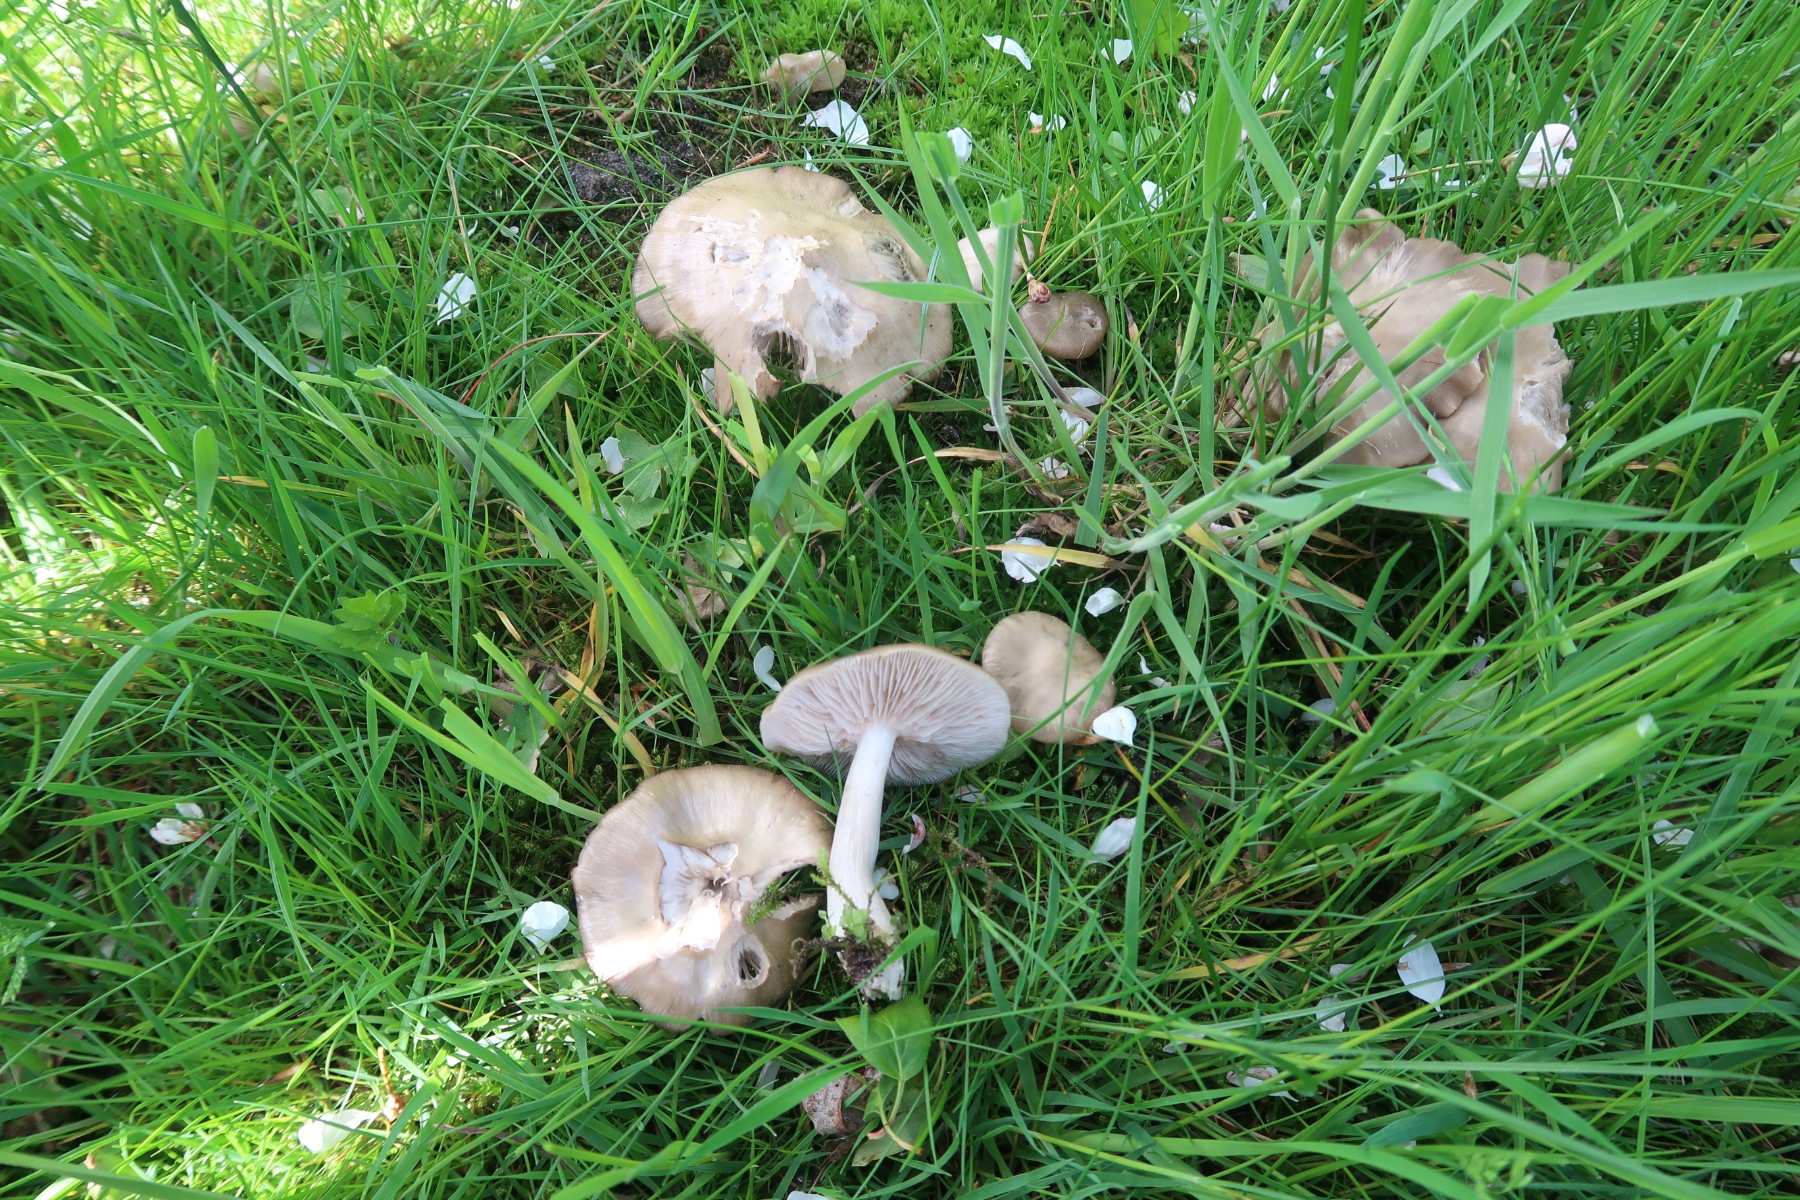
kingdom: Fungi
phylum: Basidiomycota
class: Agaricomycetes
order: Agaricales
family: Entolomataceae
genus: Entoloma
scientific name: Entoloma clypeatum
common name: flammet rødblad
